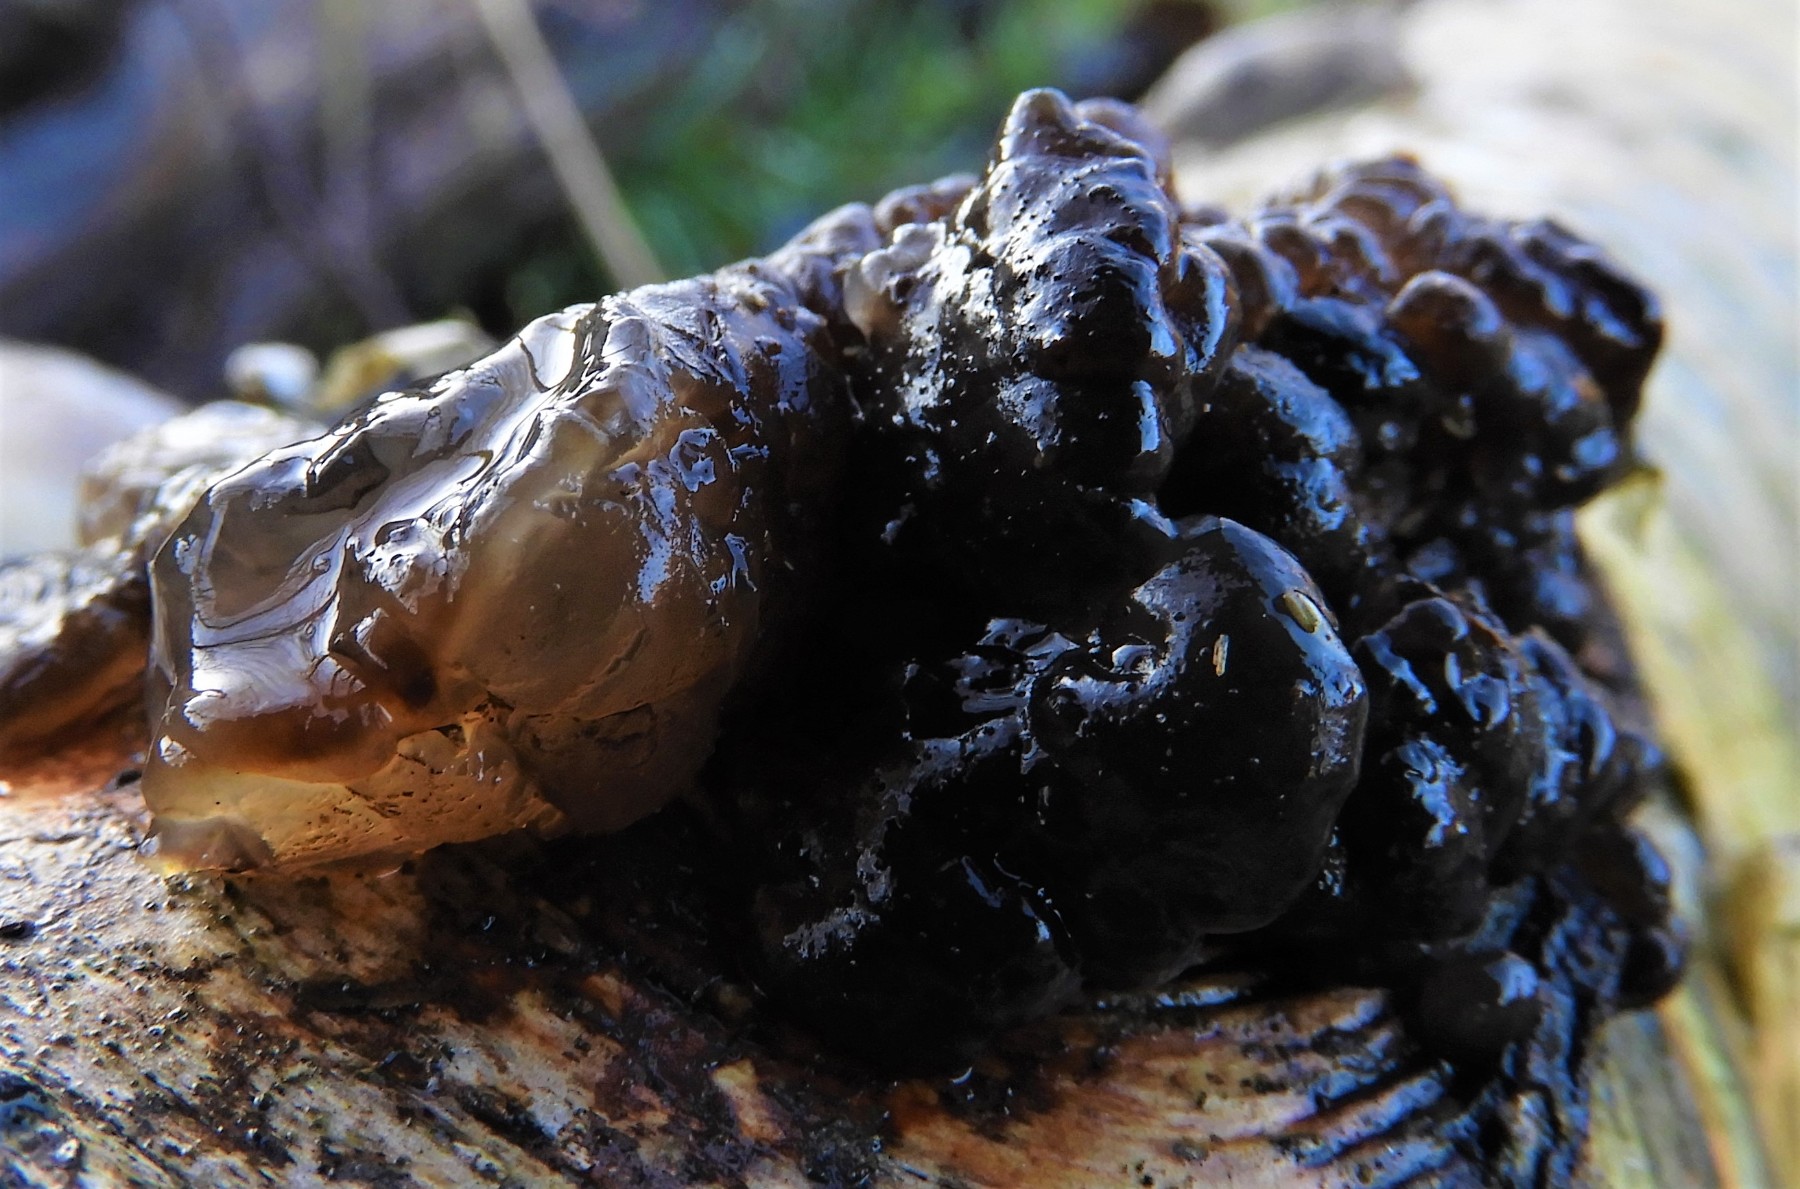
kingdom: Fungi
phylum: Basidiomycota
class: Agaricomycetes
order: Auriculariales
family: Auriculariaceae
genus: Exidia
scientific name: Exidia nigricans
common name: almindelig bævretop
